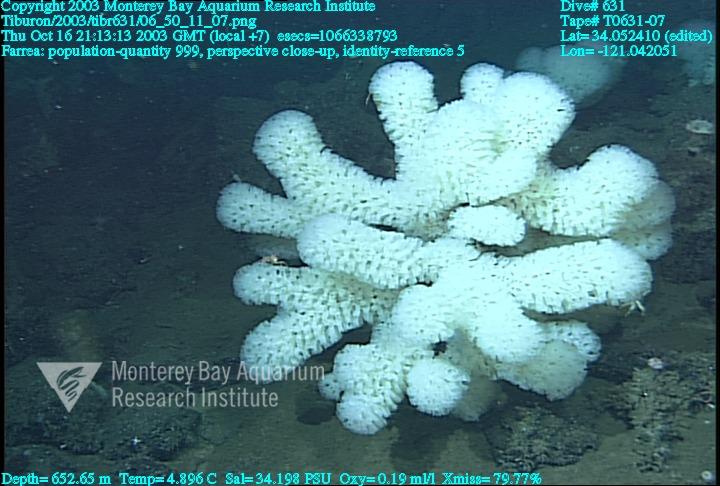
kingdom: Animalia
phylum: Porifera
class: Hexactinellida
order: Sceptrulophora
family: Farreidae
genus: Farrea
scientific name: Farrea
